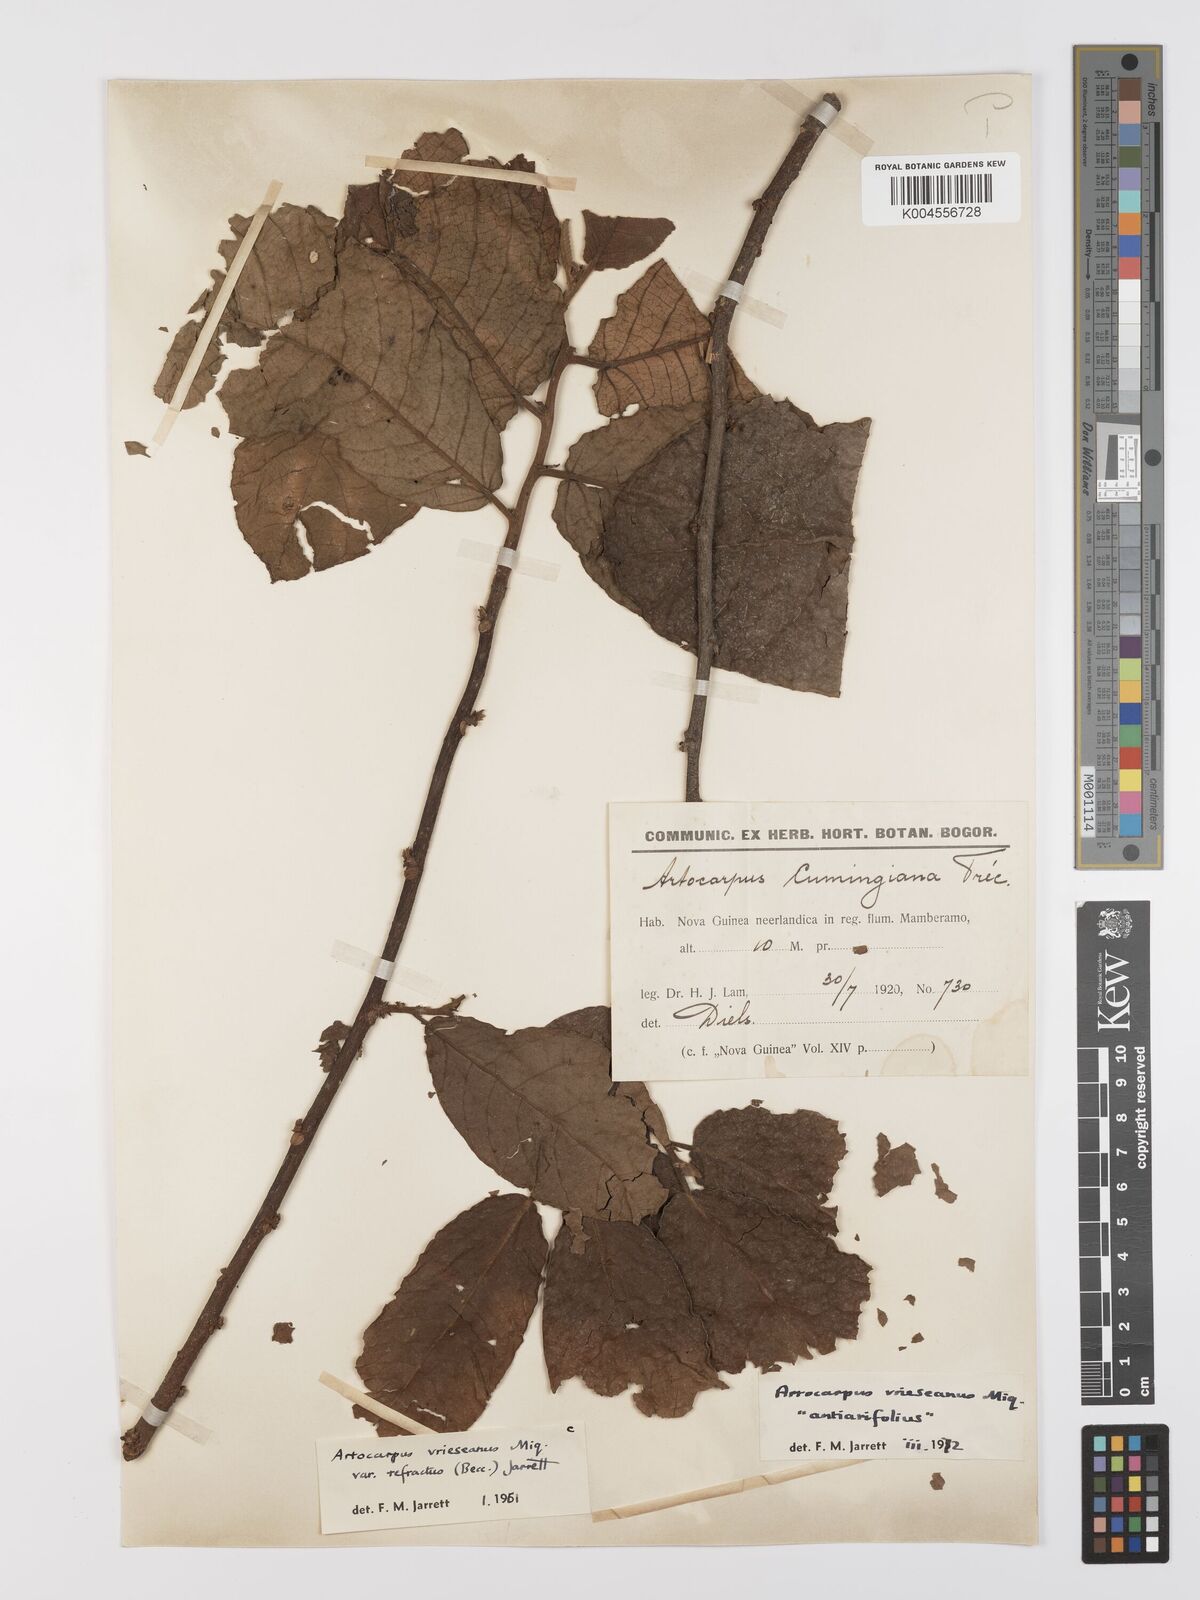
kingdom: Plantae
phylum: Tracheophyta
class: Magnoliopsida
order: Rosales
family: Moraceae
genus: Artocarpus
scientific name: Artocarpus vrieseanus
